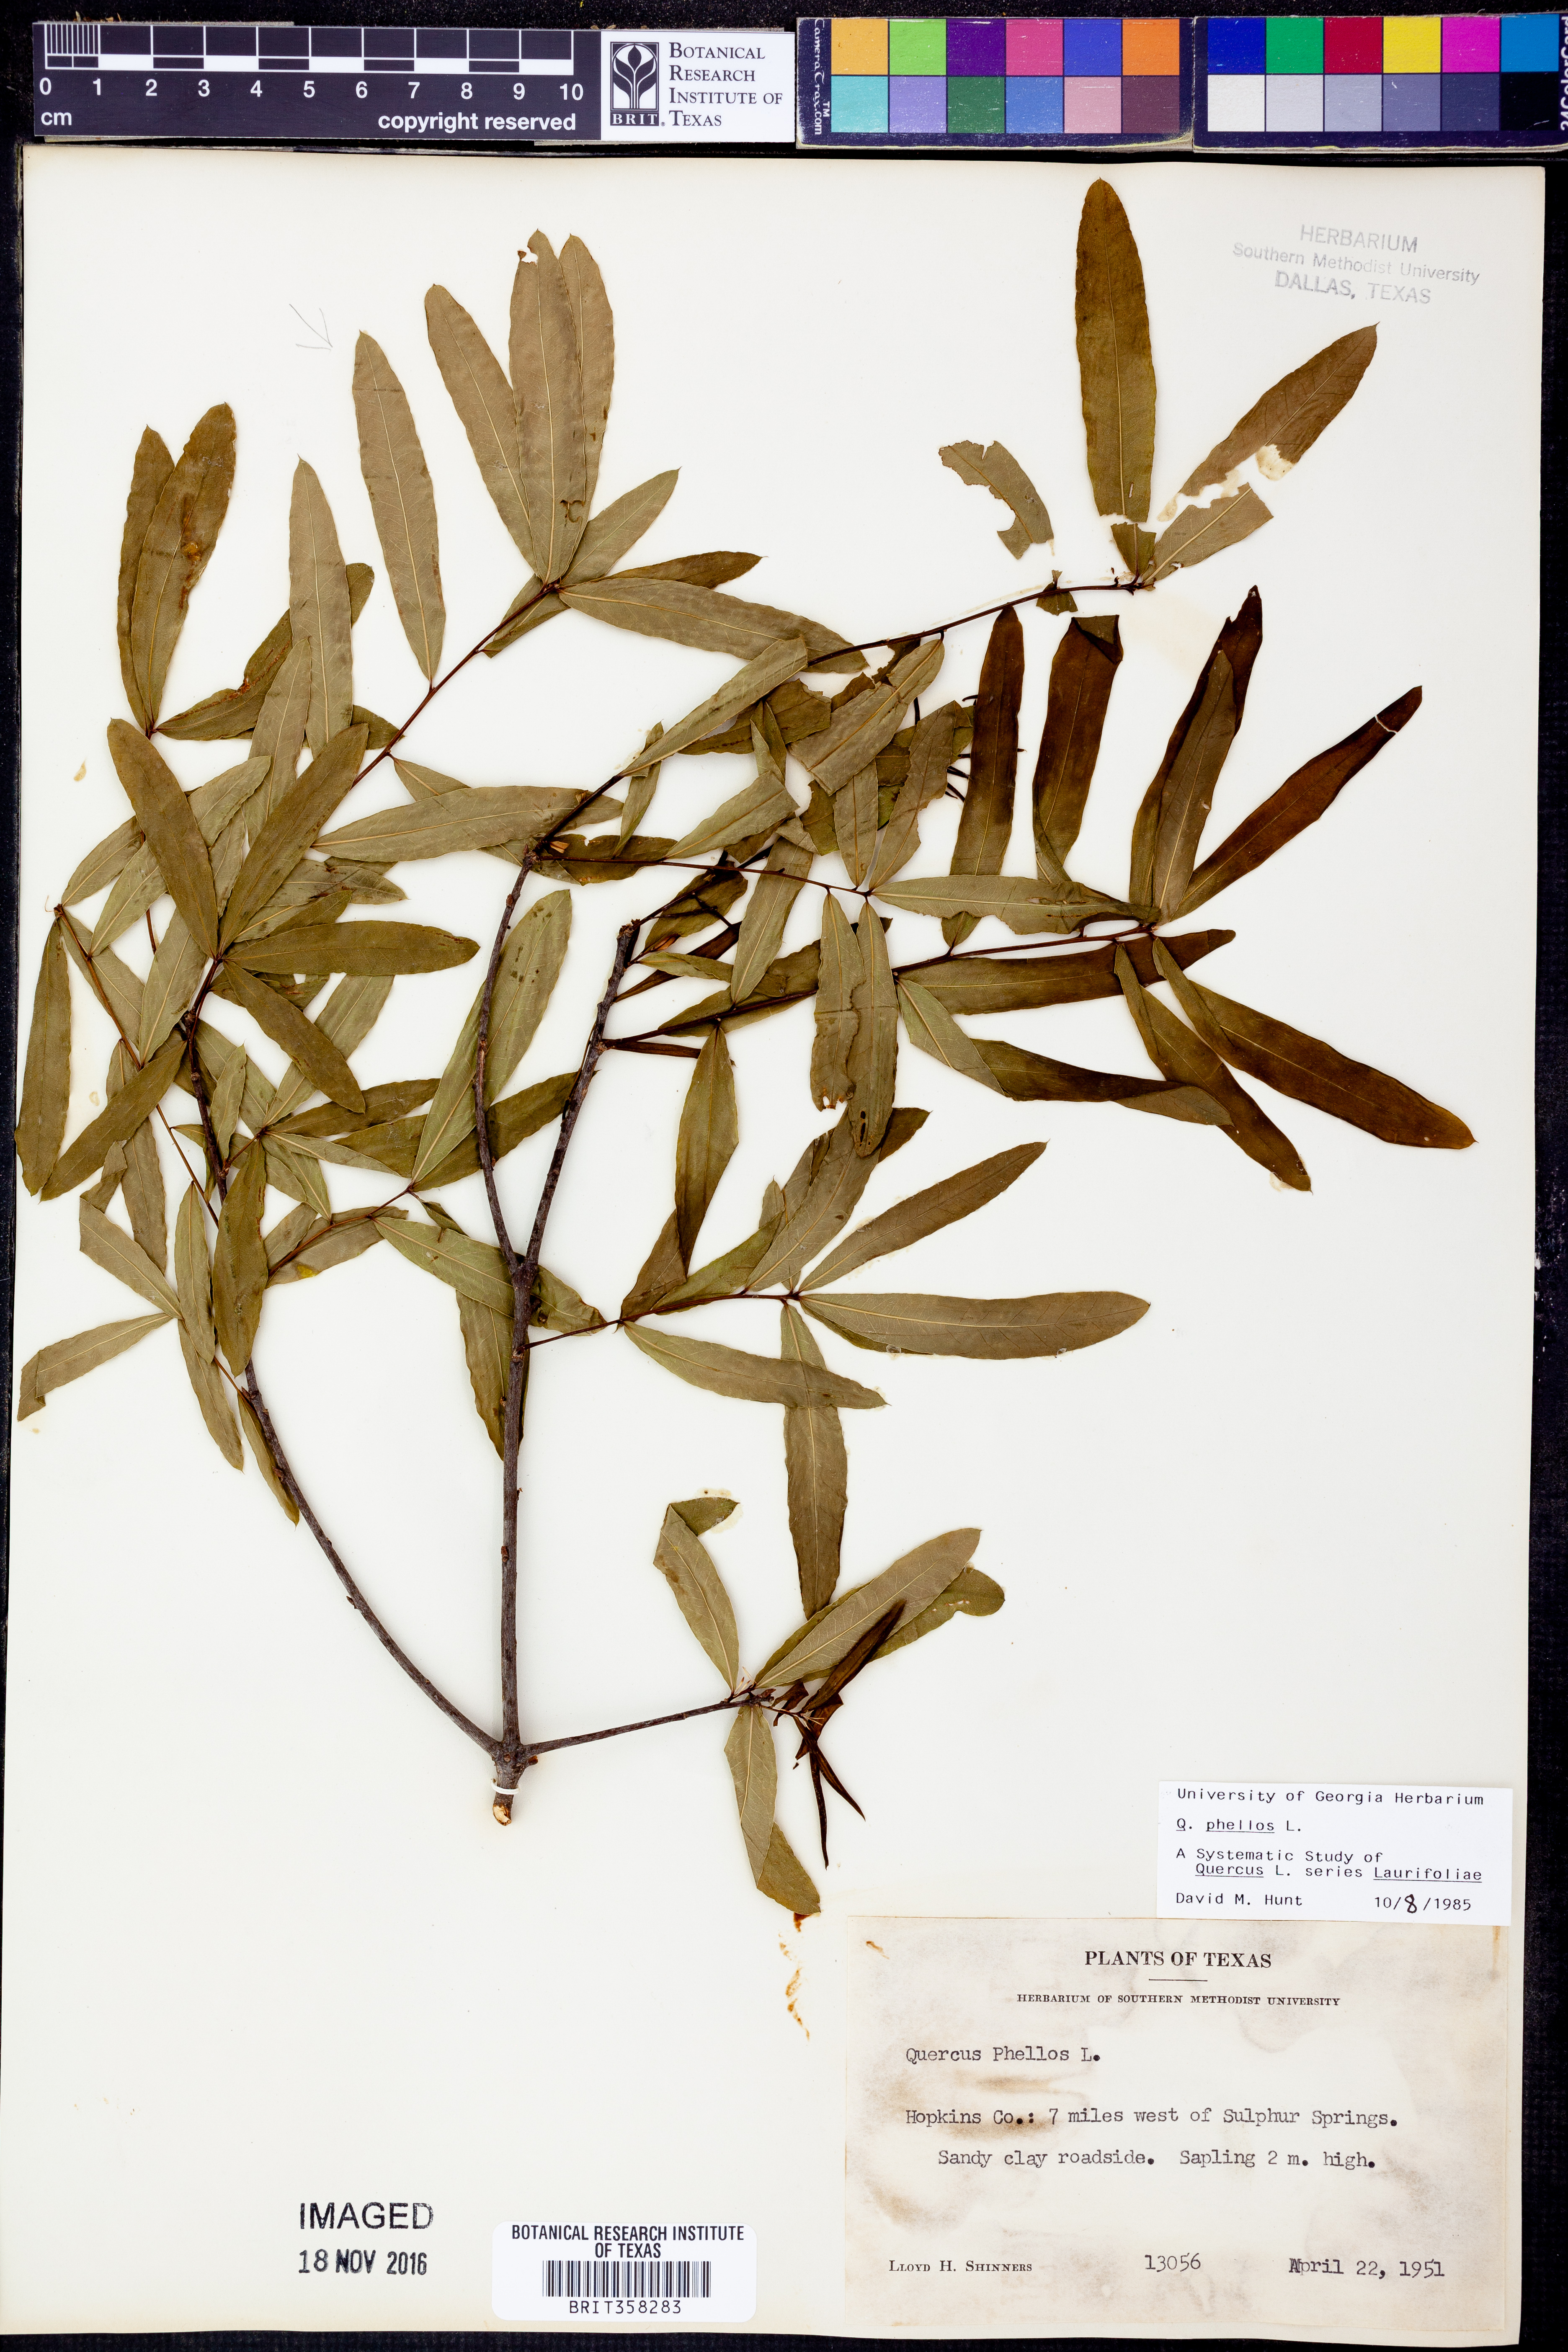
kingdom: Plantae
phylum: Tracheophyta
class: Magnoliopsida
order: Fagales
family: Fagaceae
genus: Quercus
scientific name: Quercus phellos
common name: Willow oak
